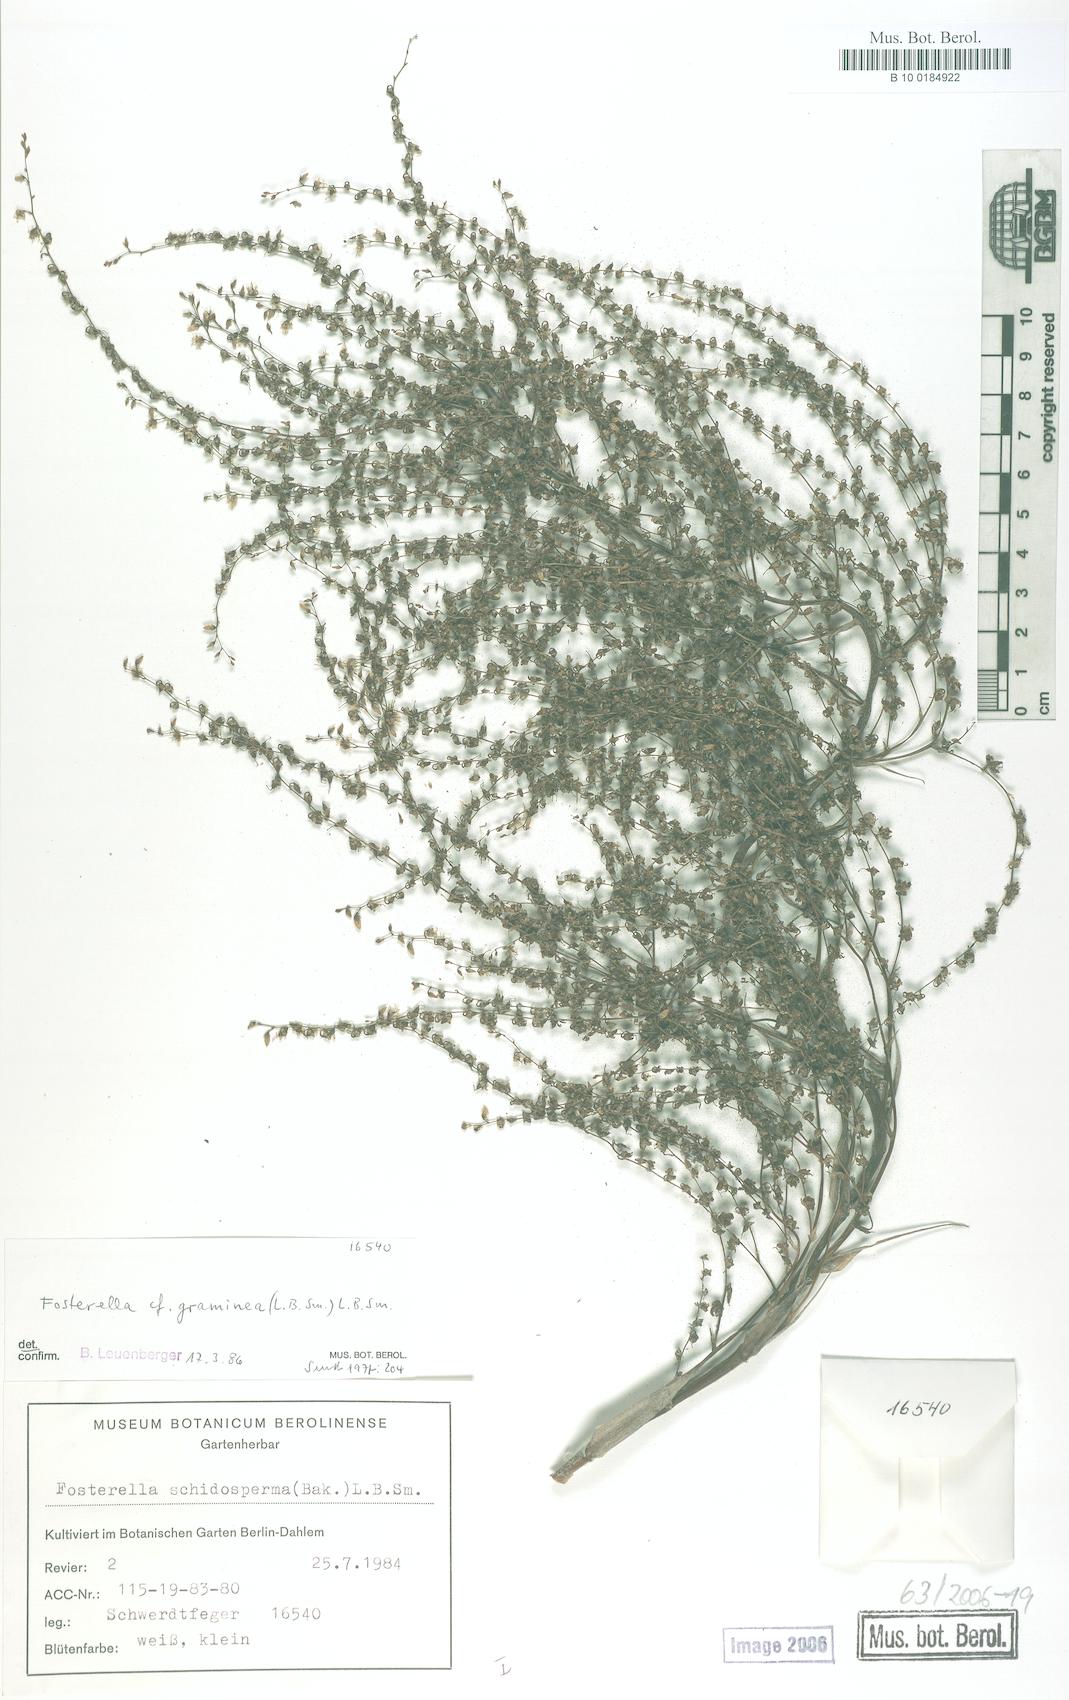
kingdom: Plantae
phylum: Tracheophyta
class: Liliopsida
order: Poales
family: Bromeliaceae
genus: Fosterella
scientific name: Fosterella graminea
